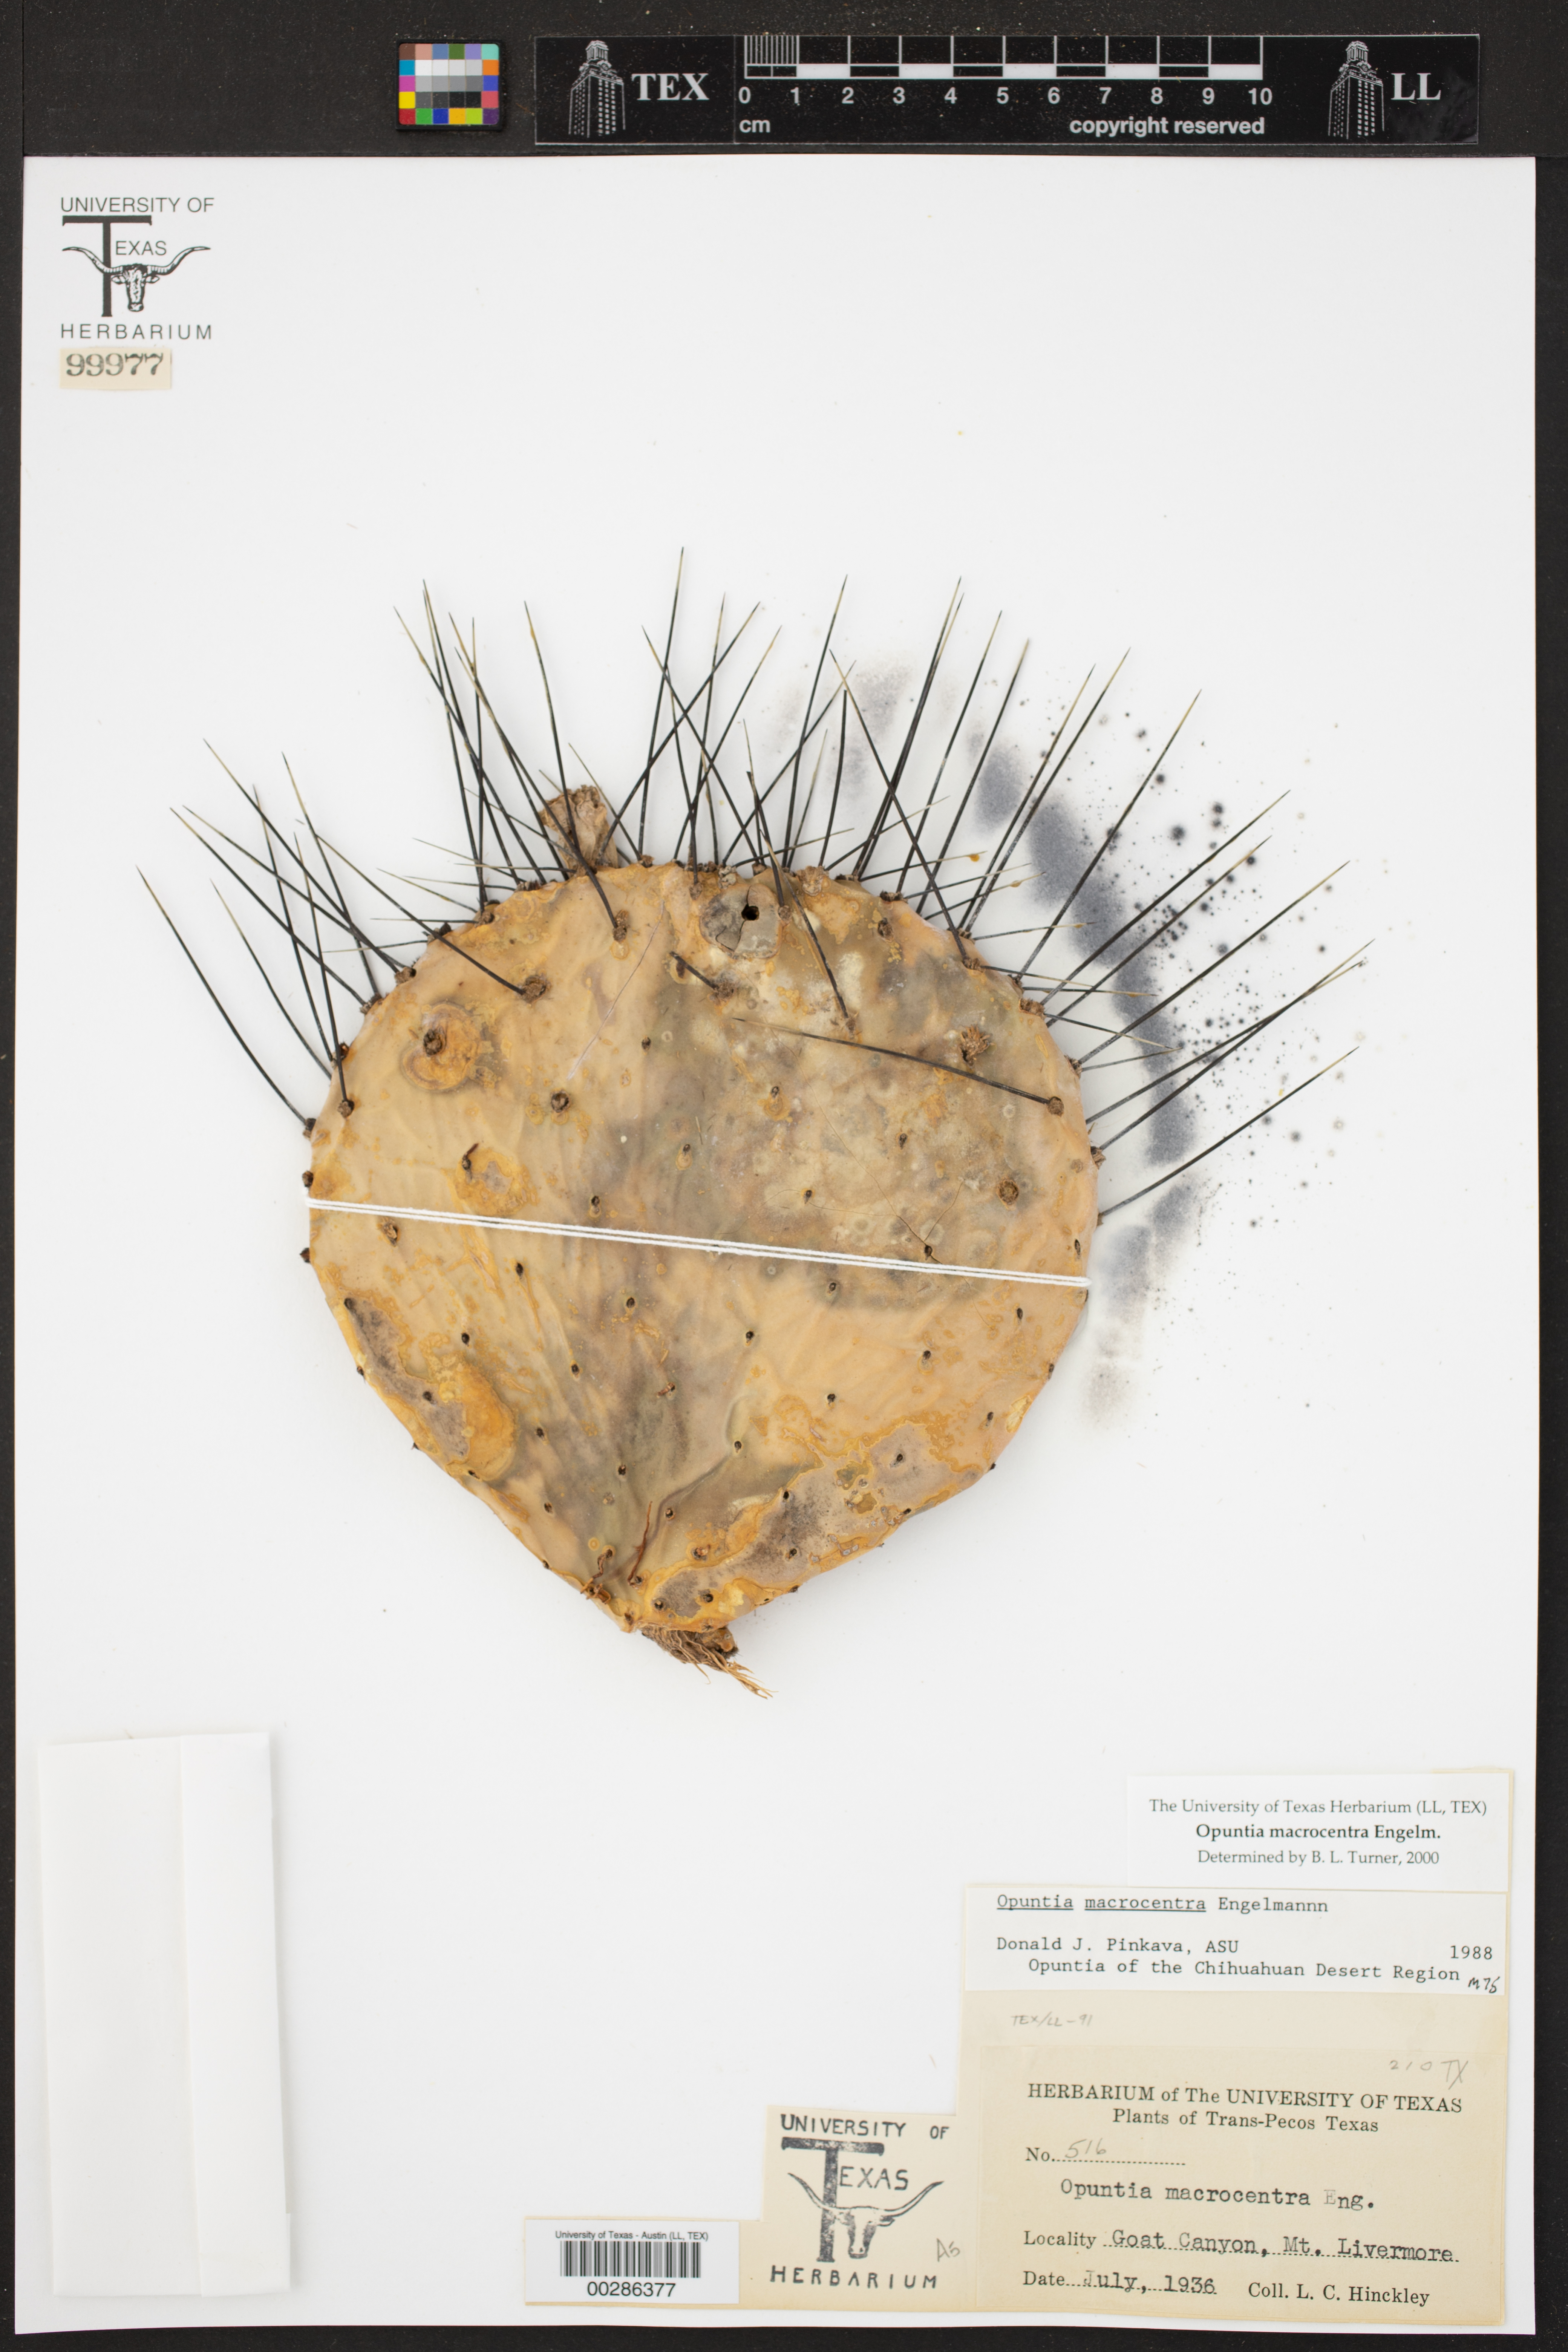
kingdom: Plantae
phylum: Tracheophyta
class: Magnoliopsida
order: Caryophyllales
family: Cactaceae
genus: Opuntia
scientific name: Opuntia macrocentra
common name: Purple prickly-pear
